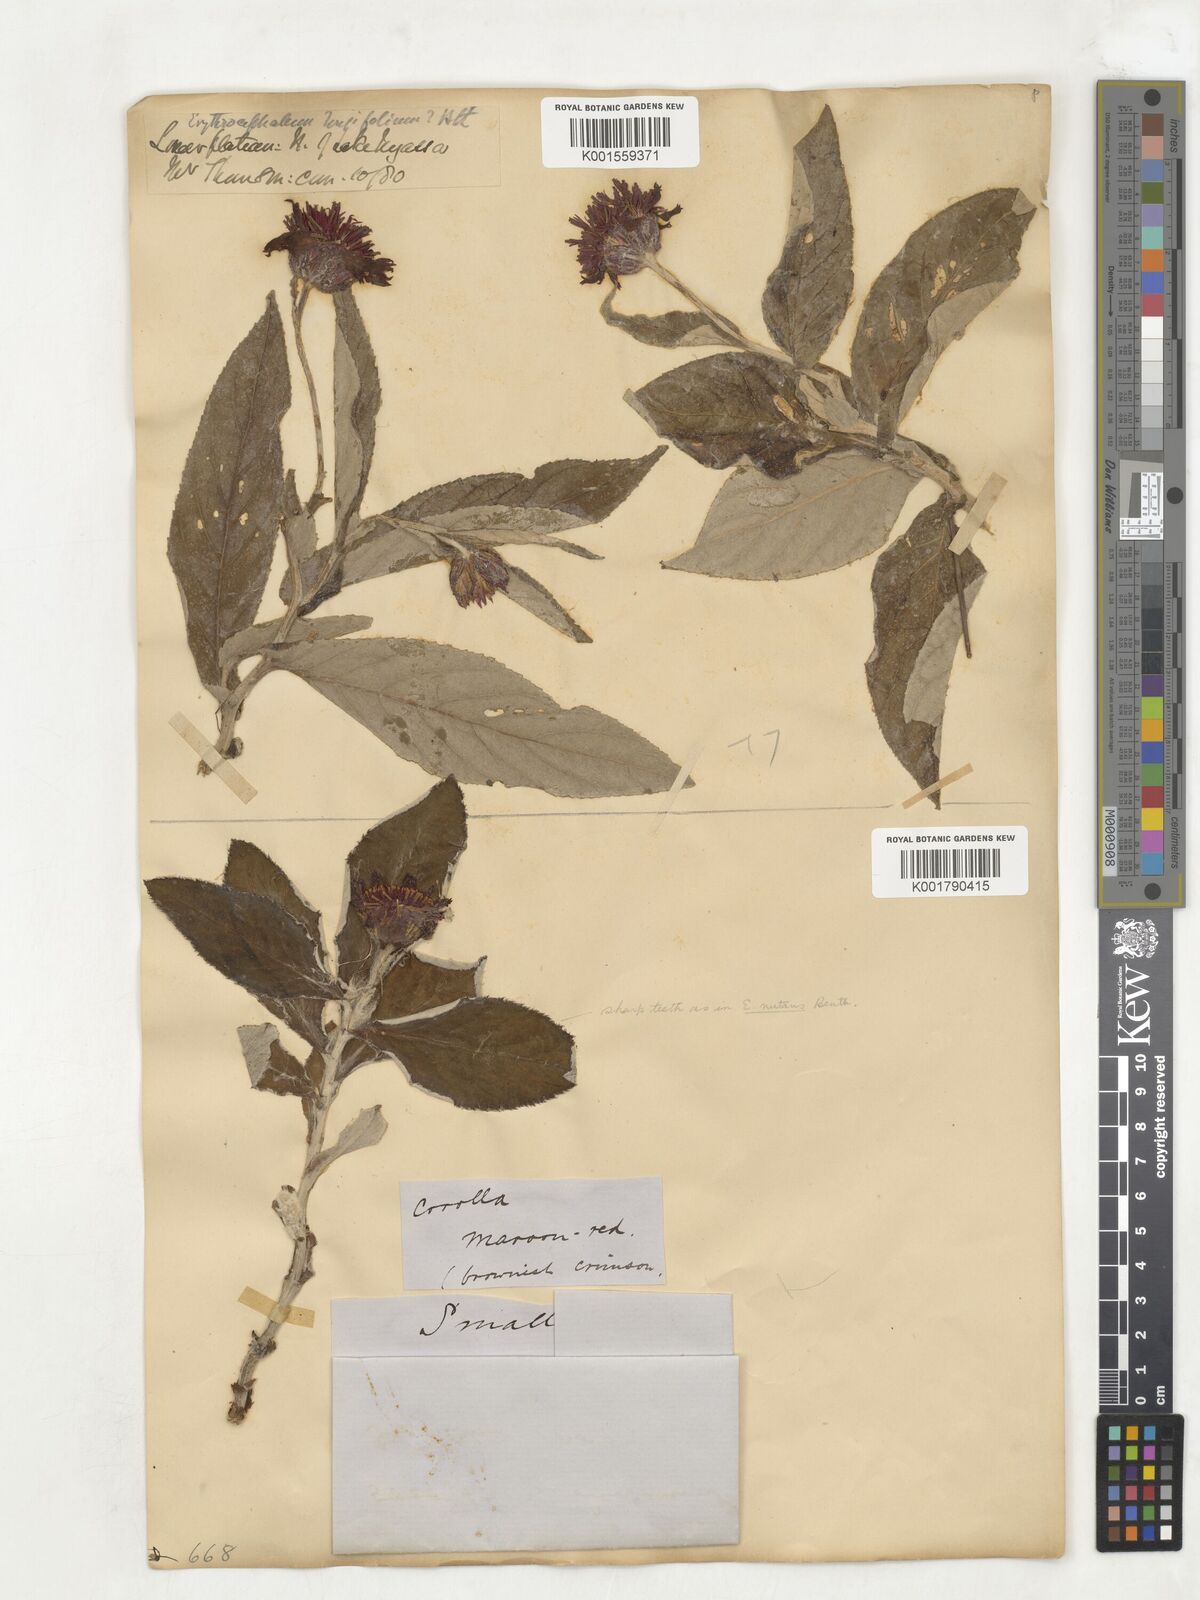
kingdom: Plantae
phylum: Tracheophyta
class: Magnoliopsida
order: Asterales
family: Asteraceae
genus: Erythrocephalum
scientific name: Erythrocephalum longifolium
